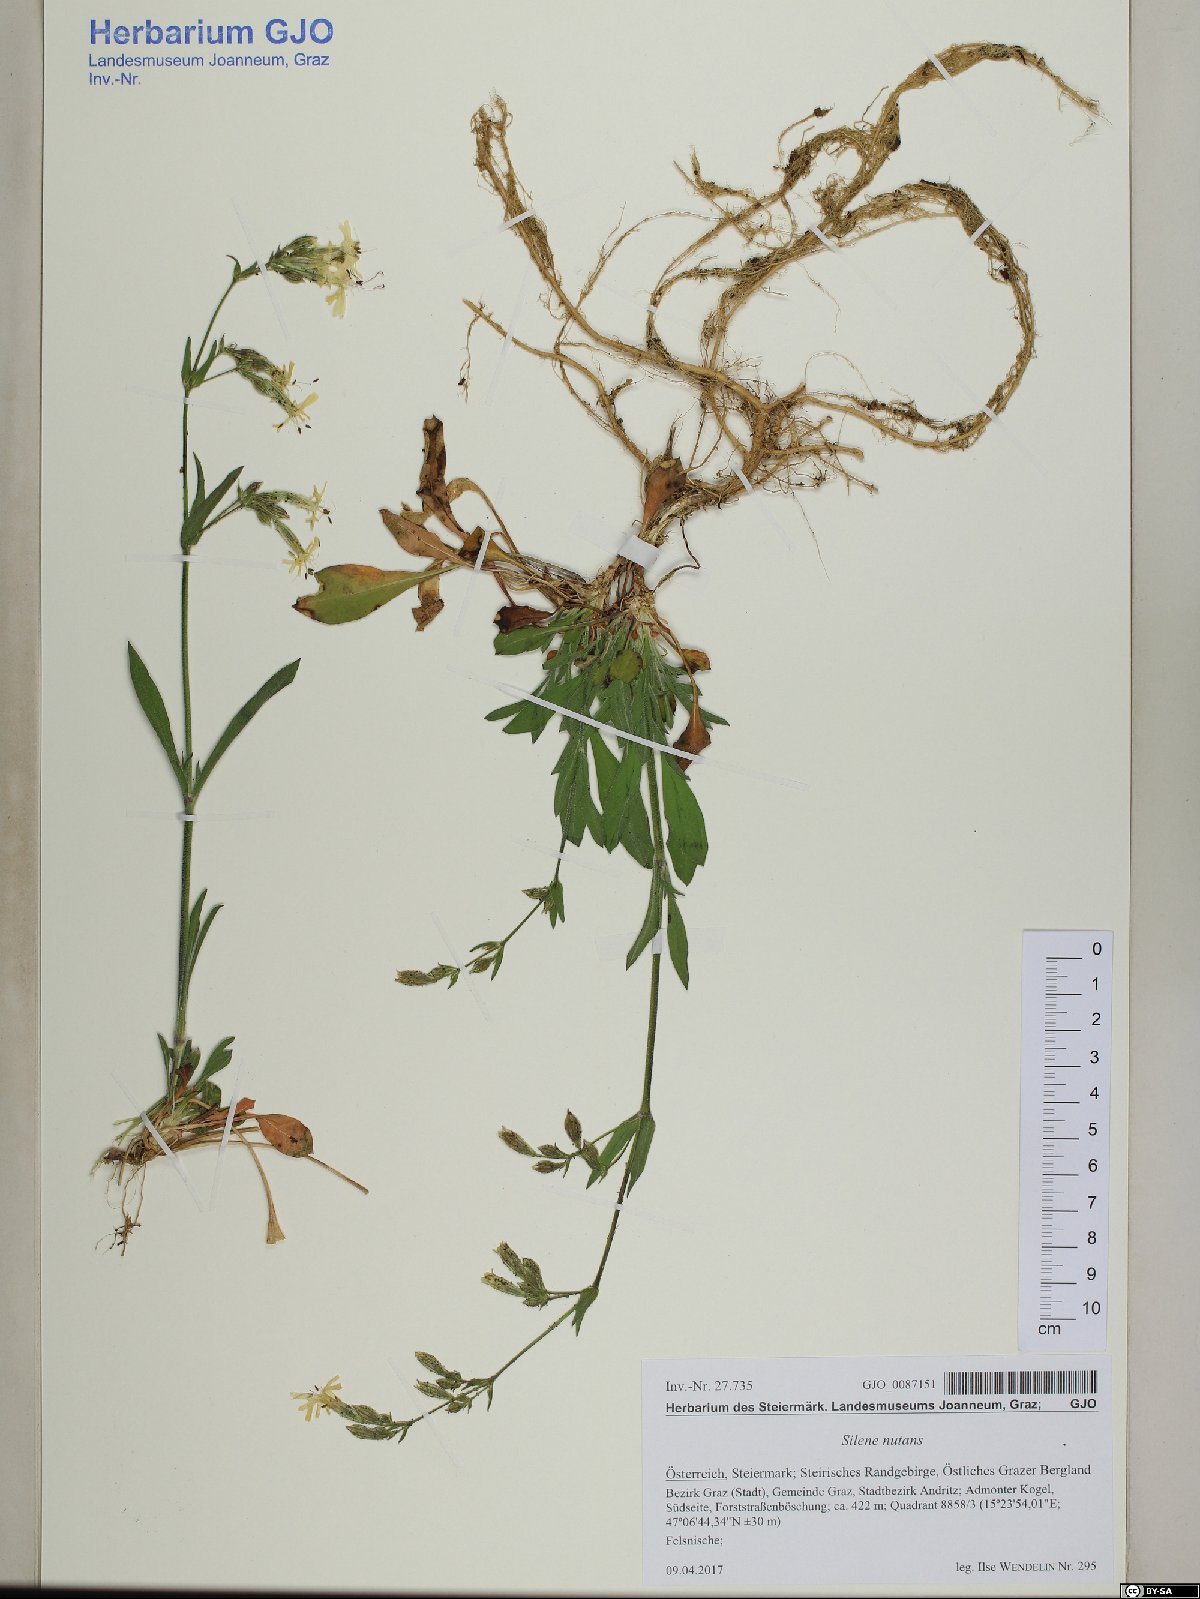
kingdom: Plantae
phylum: Tracheophyta
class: Magnoliopsida
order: Caryophyllales
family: Caryophyllaceae
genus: Silene
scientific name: Silene nutans
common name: Nottingham catchfly
